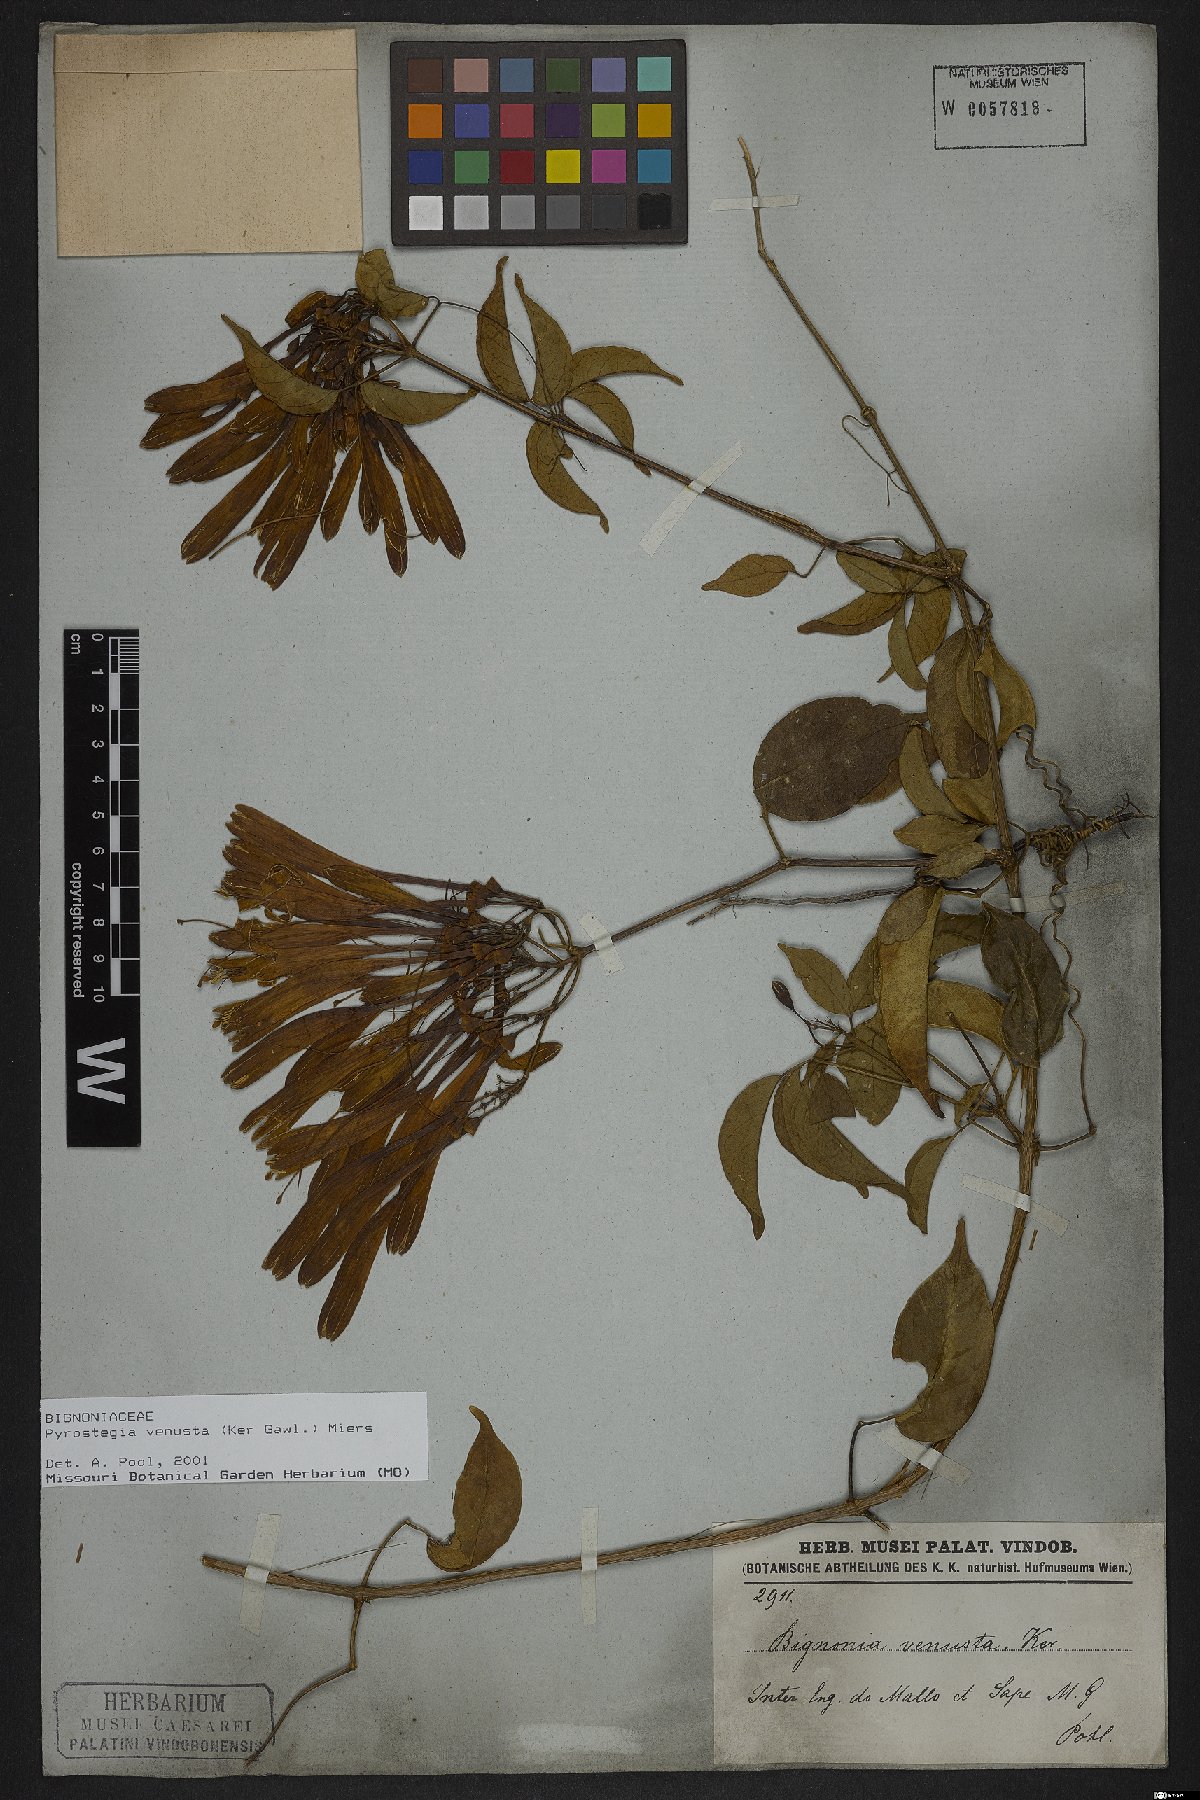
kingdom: Plantae
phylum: Tracheophyta
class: Magnoliopsida
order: Lamiales
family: Bignoniaceae
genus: Pyrostegia
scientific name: Pyrostegia venusta
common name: Flamevine
